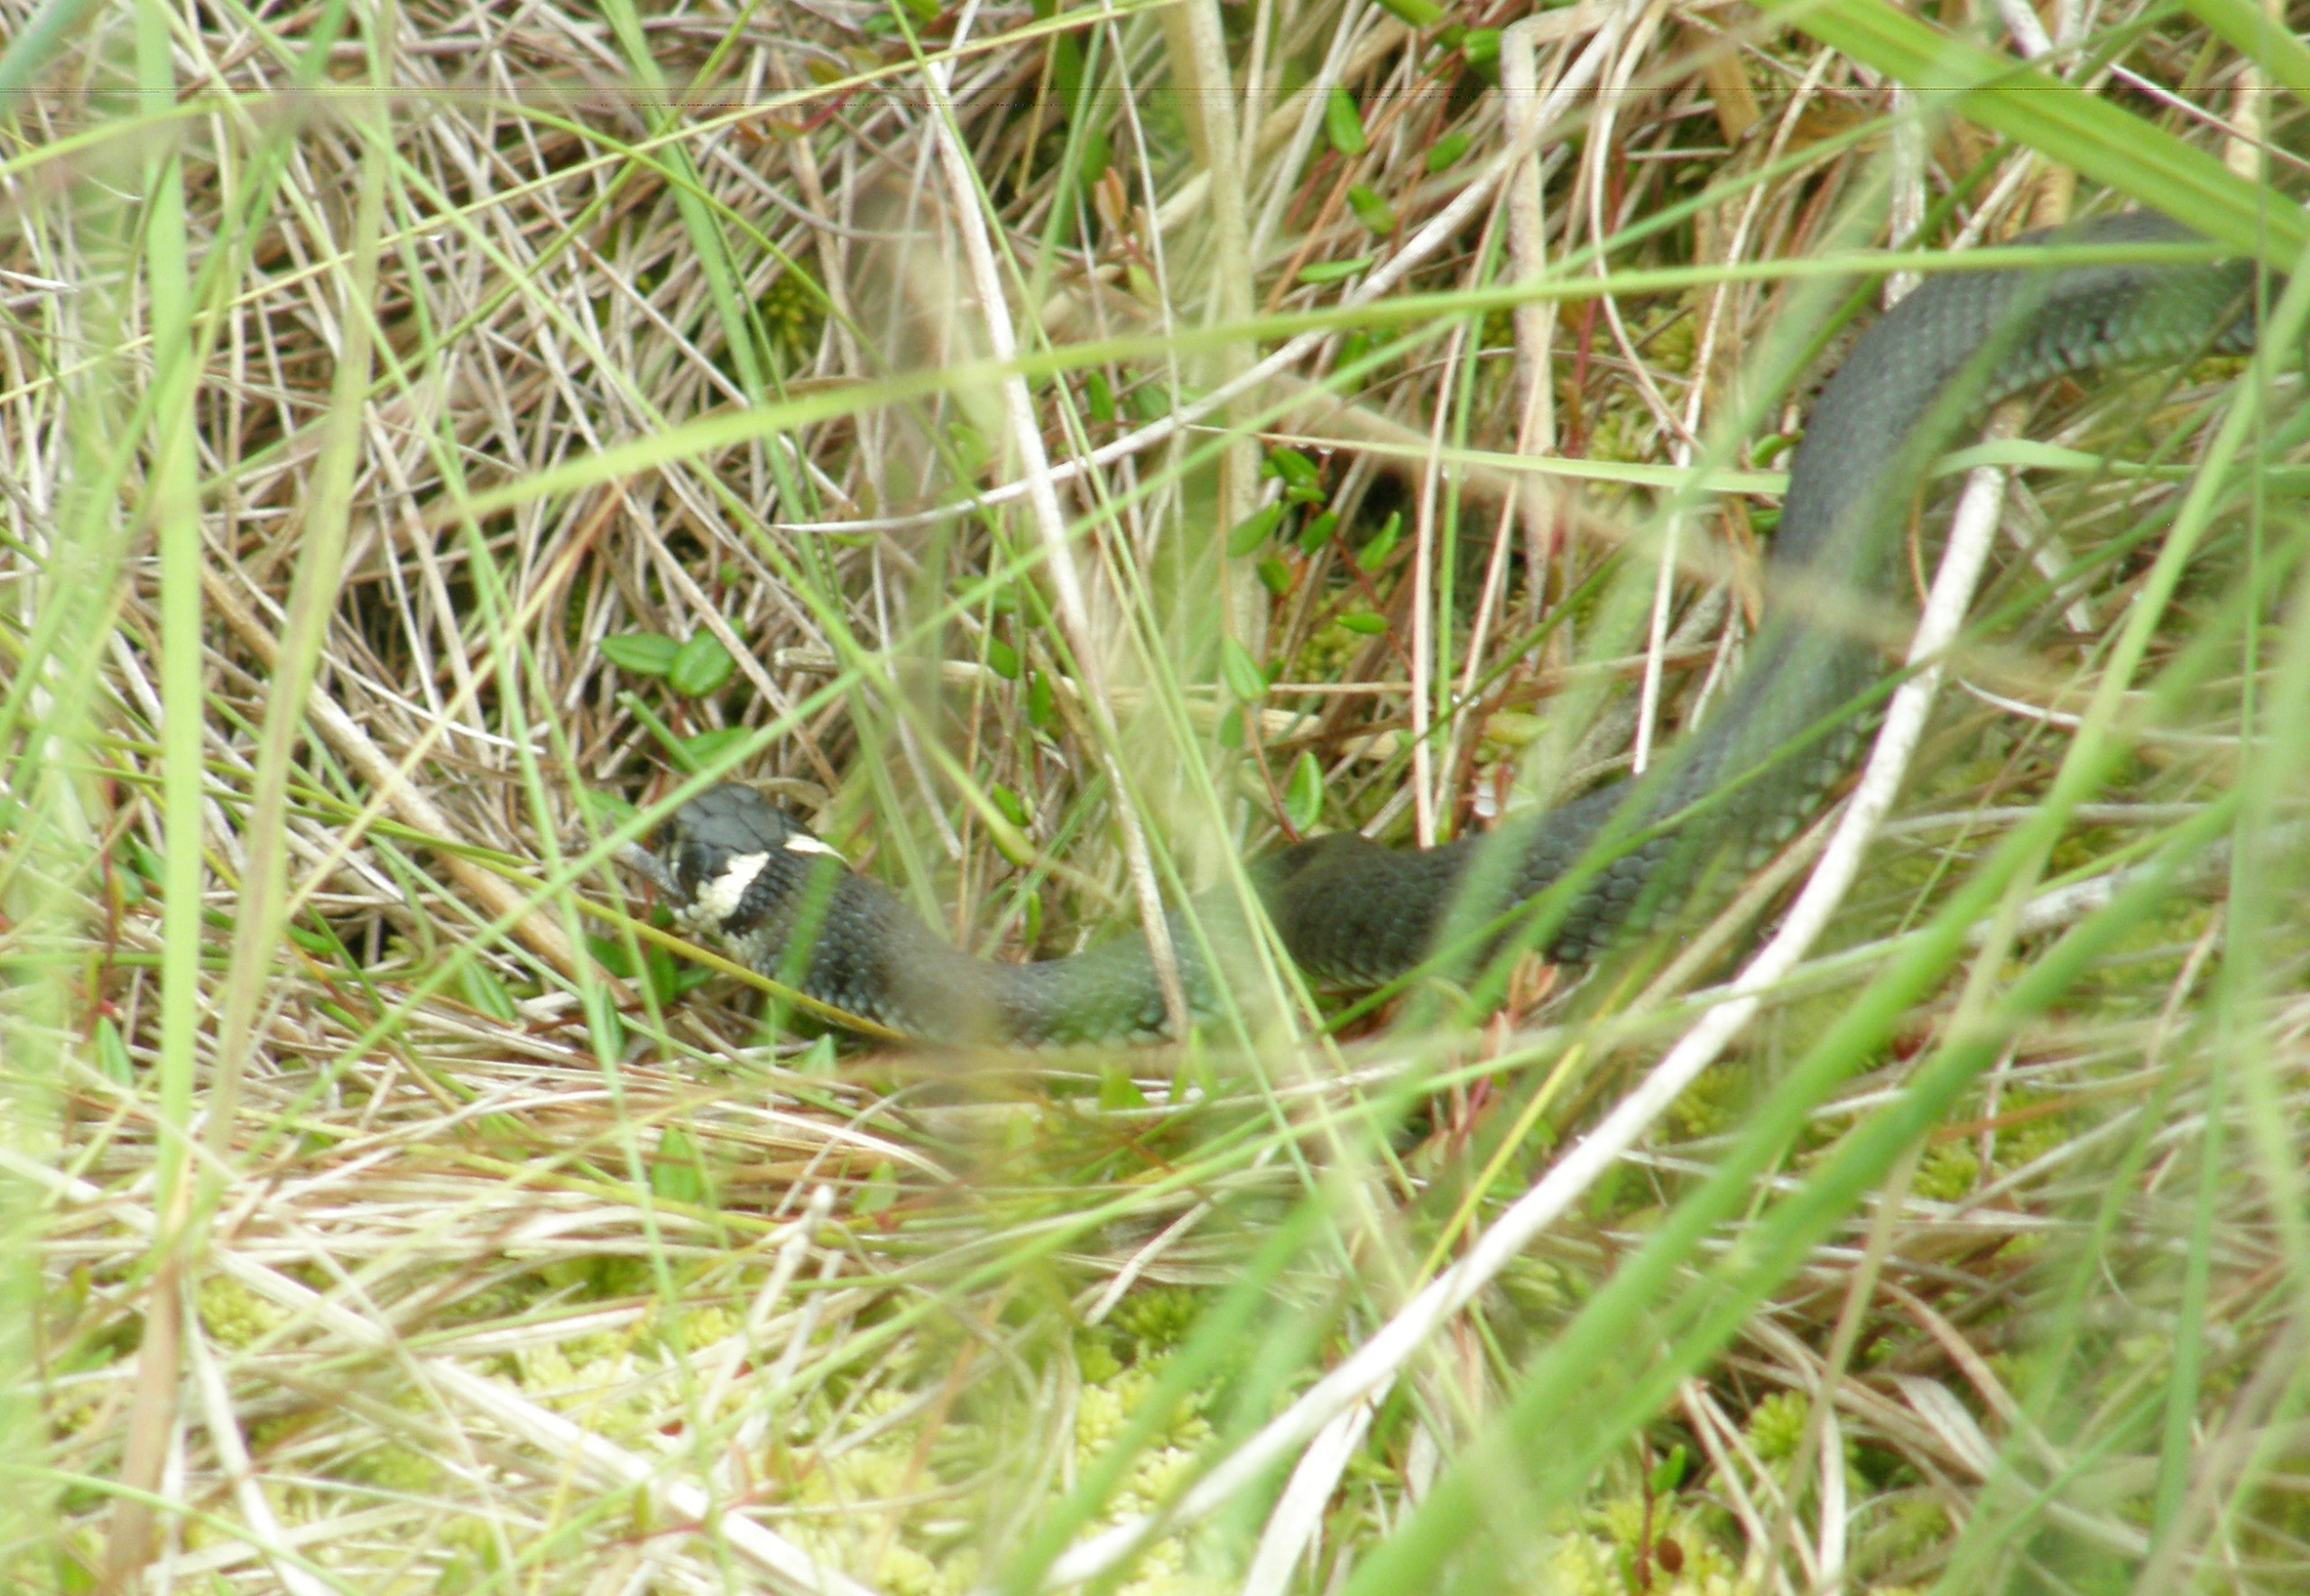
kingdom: Animalia
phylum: Chordata
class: Squamata
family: Colubridae
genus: Natrix
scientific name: Natrix natrix
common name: Snog
